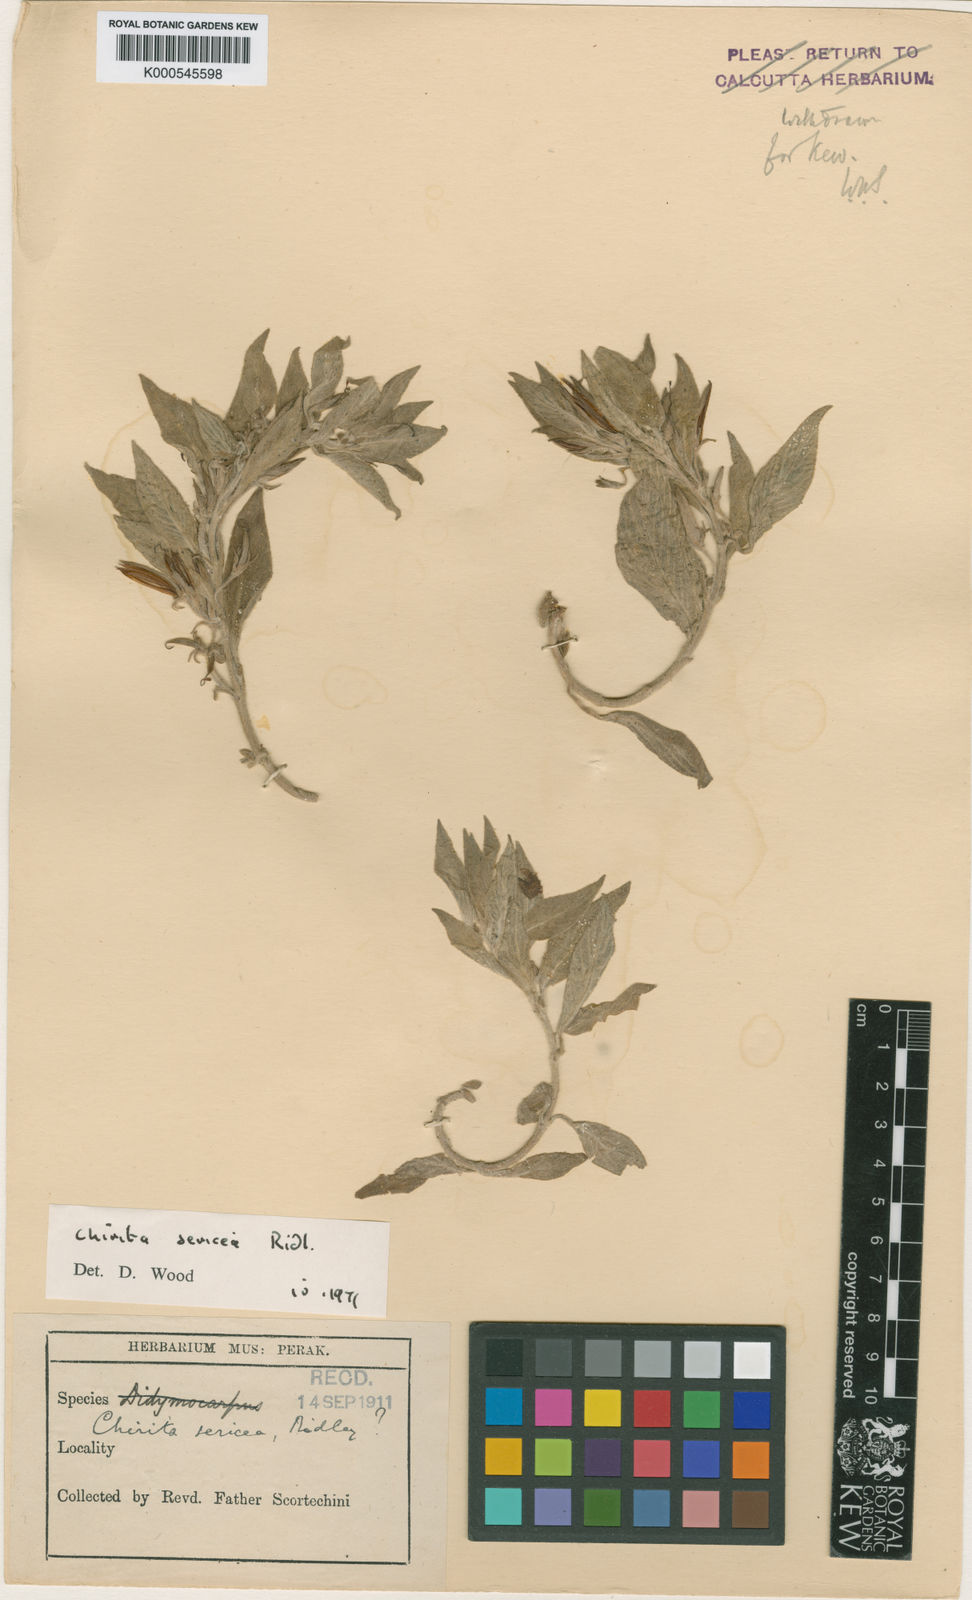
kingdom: Plantae
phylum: Tracheophyta
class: Magnoliopsida
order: Lamiales
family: Gesneriaceae
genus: Microchirita
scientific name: Microchirita sericea
